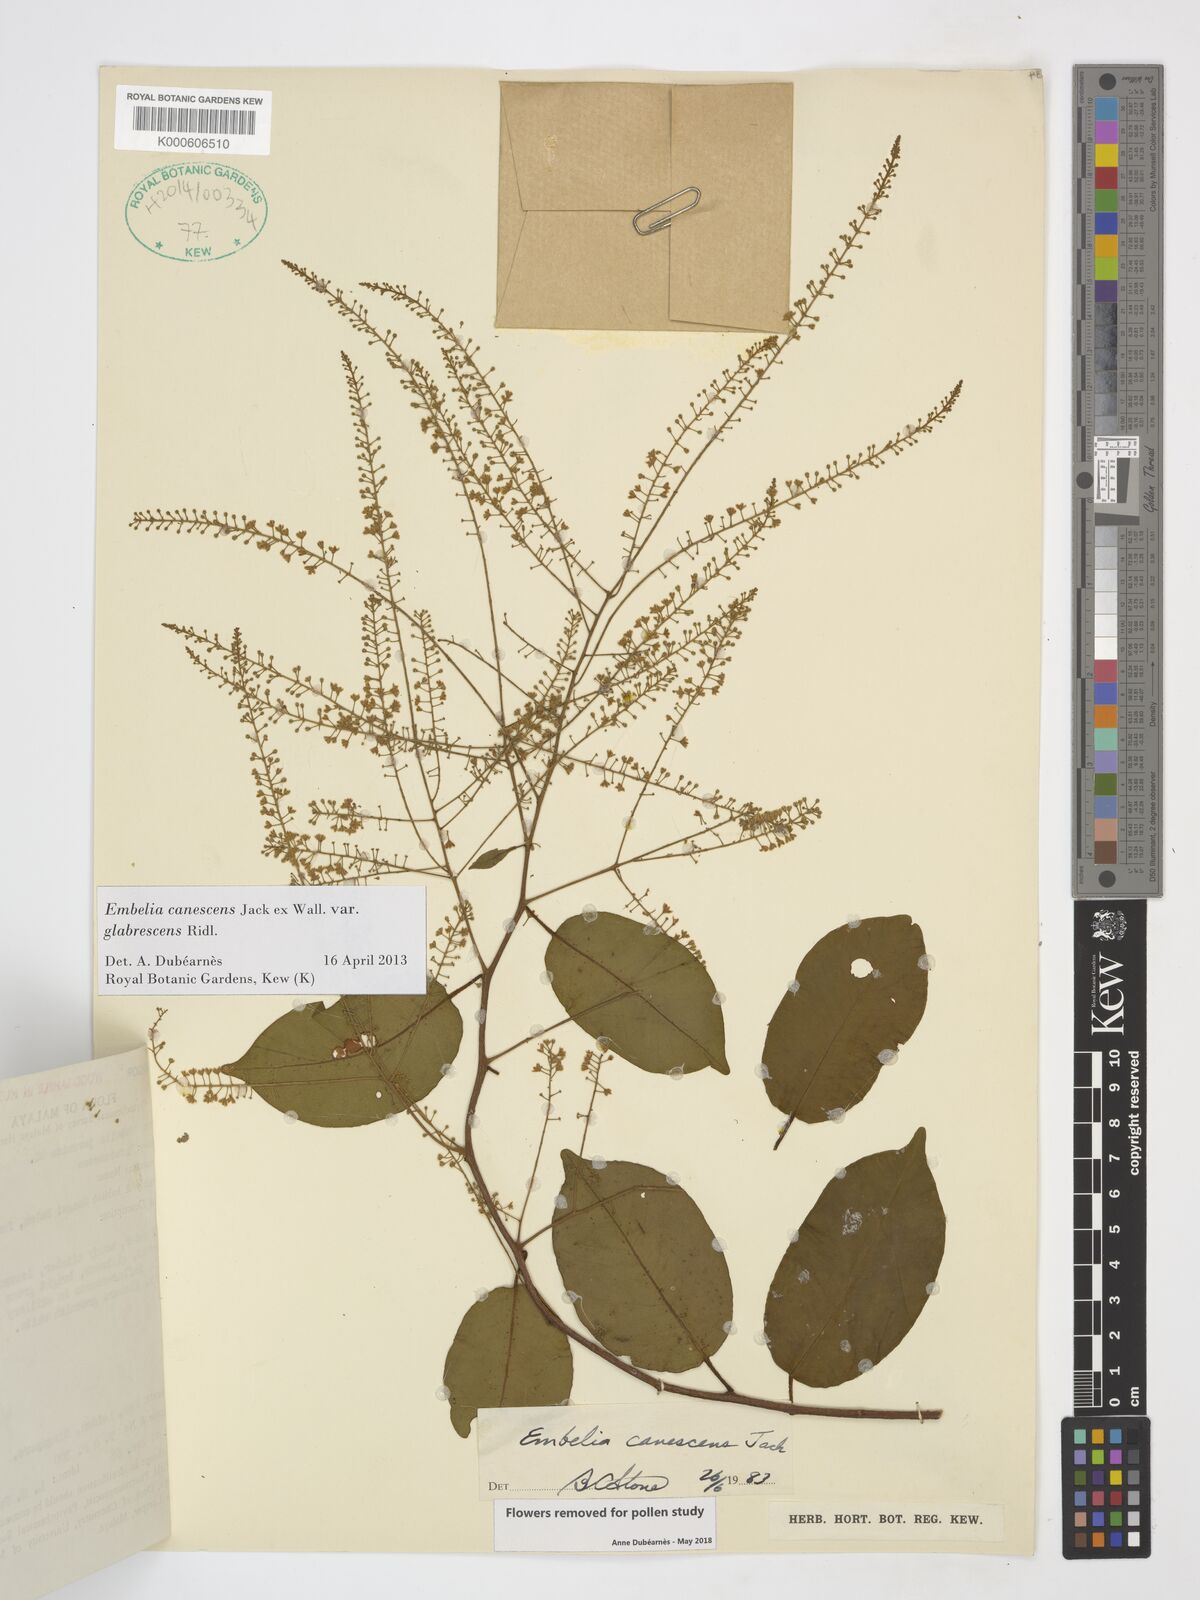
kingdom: Plantae
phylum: Tracheophyta
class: Magnoliopsida
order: Ericales
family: Primulaceae
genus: Embelia
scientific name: Embelia canescens
